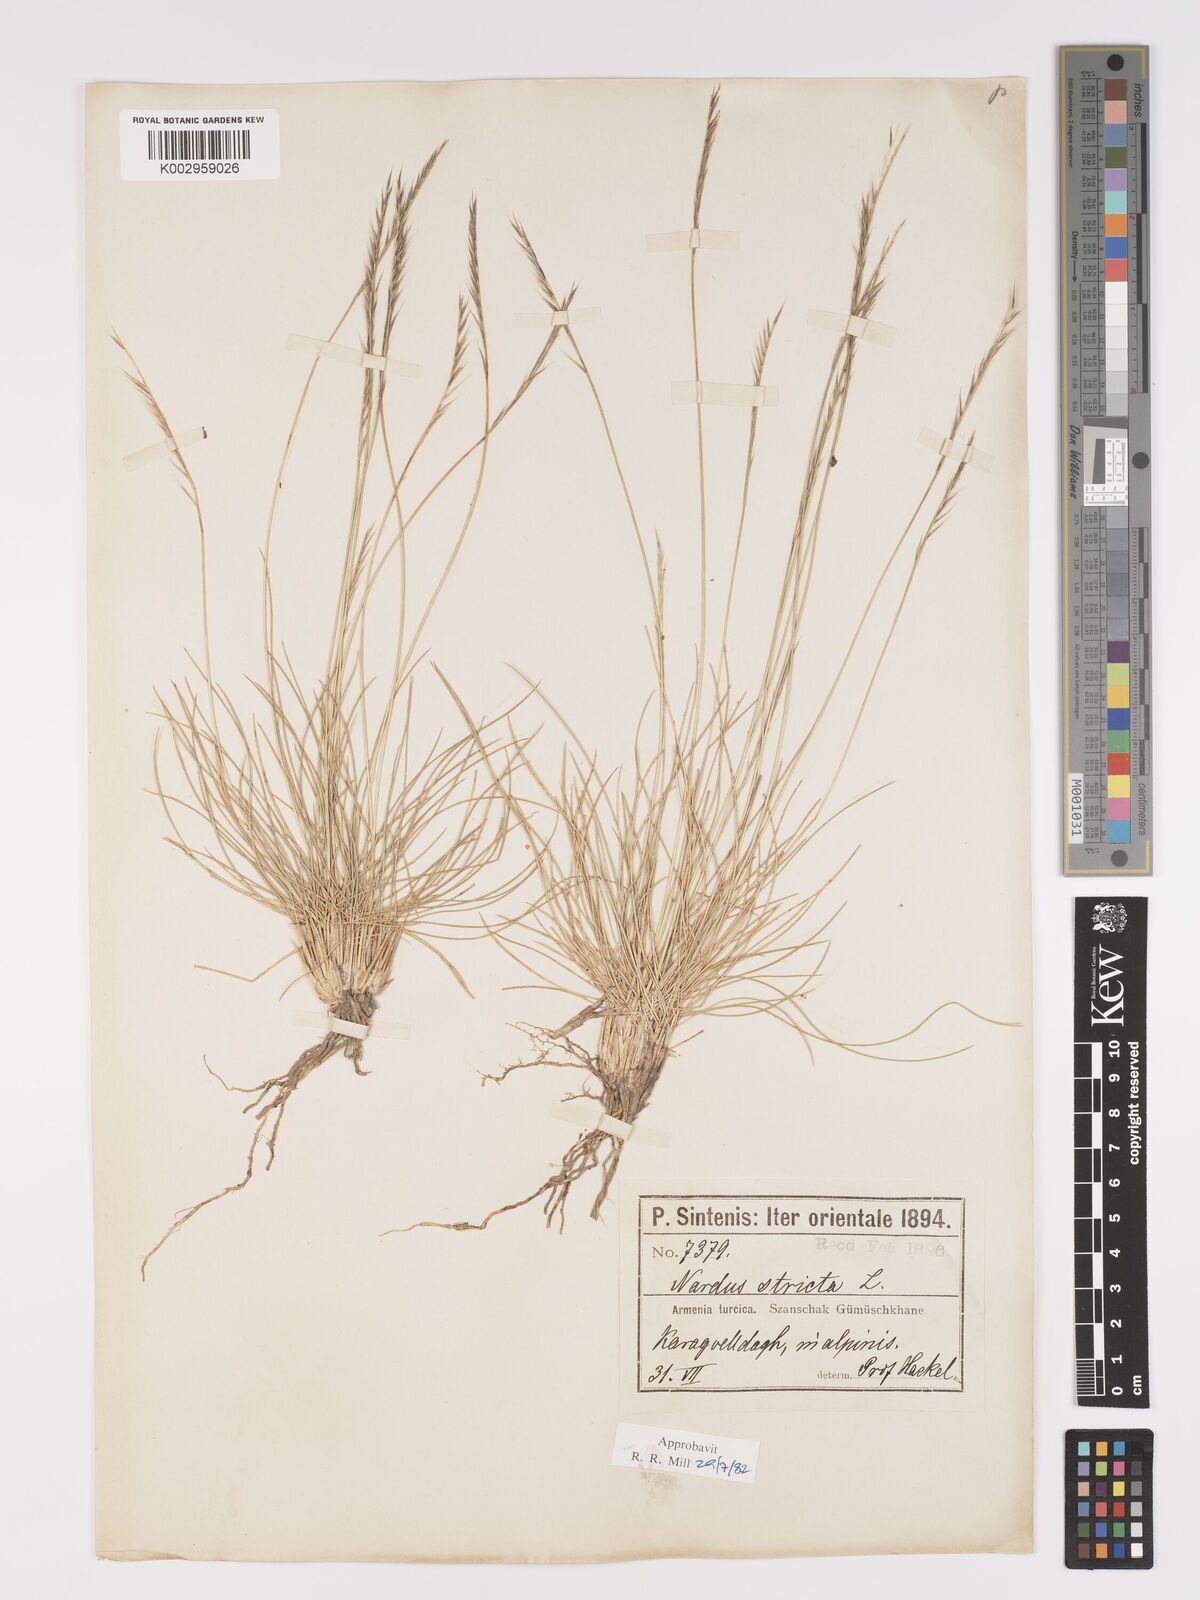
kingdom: Plantae
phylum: Tracheophyta
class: Liliopsida
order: Poales
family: Poaceae
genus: Nardus
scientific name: Nardus stricta
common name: Mat-grass
